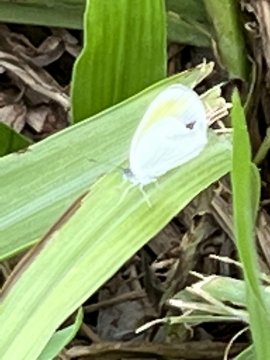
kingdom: Animalia
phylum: Arthropoda
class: Insecta
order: Lepidoptera
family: Pieridae
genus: Pyrisitia
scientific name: Pyrisitia venusta
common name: Pale Yellow
